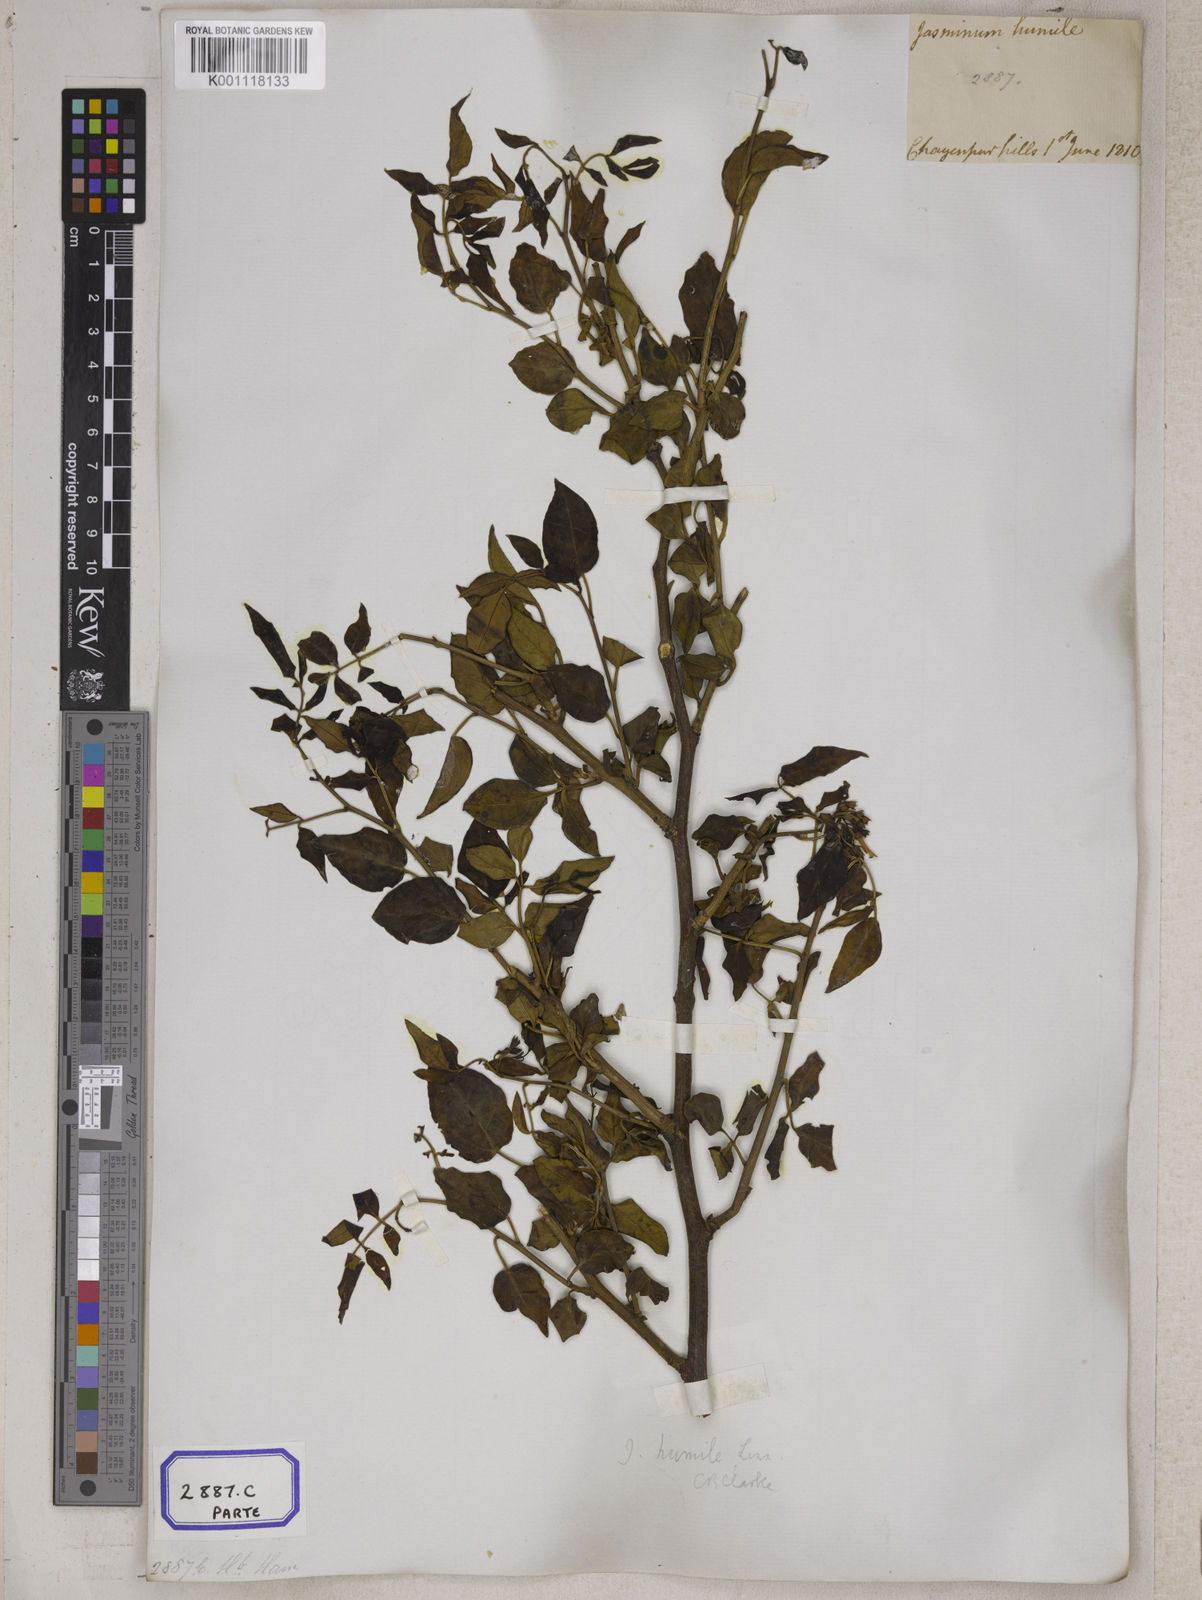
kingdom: Plantae
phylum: Tracheophyta
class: Magnoliopsida
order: Lamiales
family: Oleaceae
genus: Chrysojasminum
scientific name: Chrysojasminum humile
